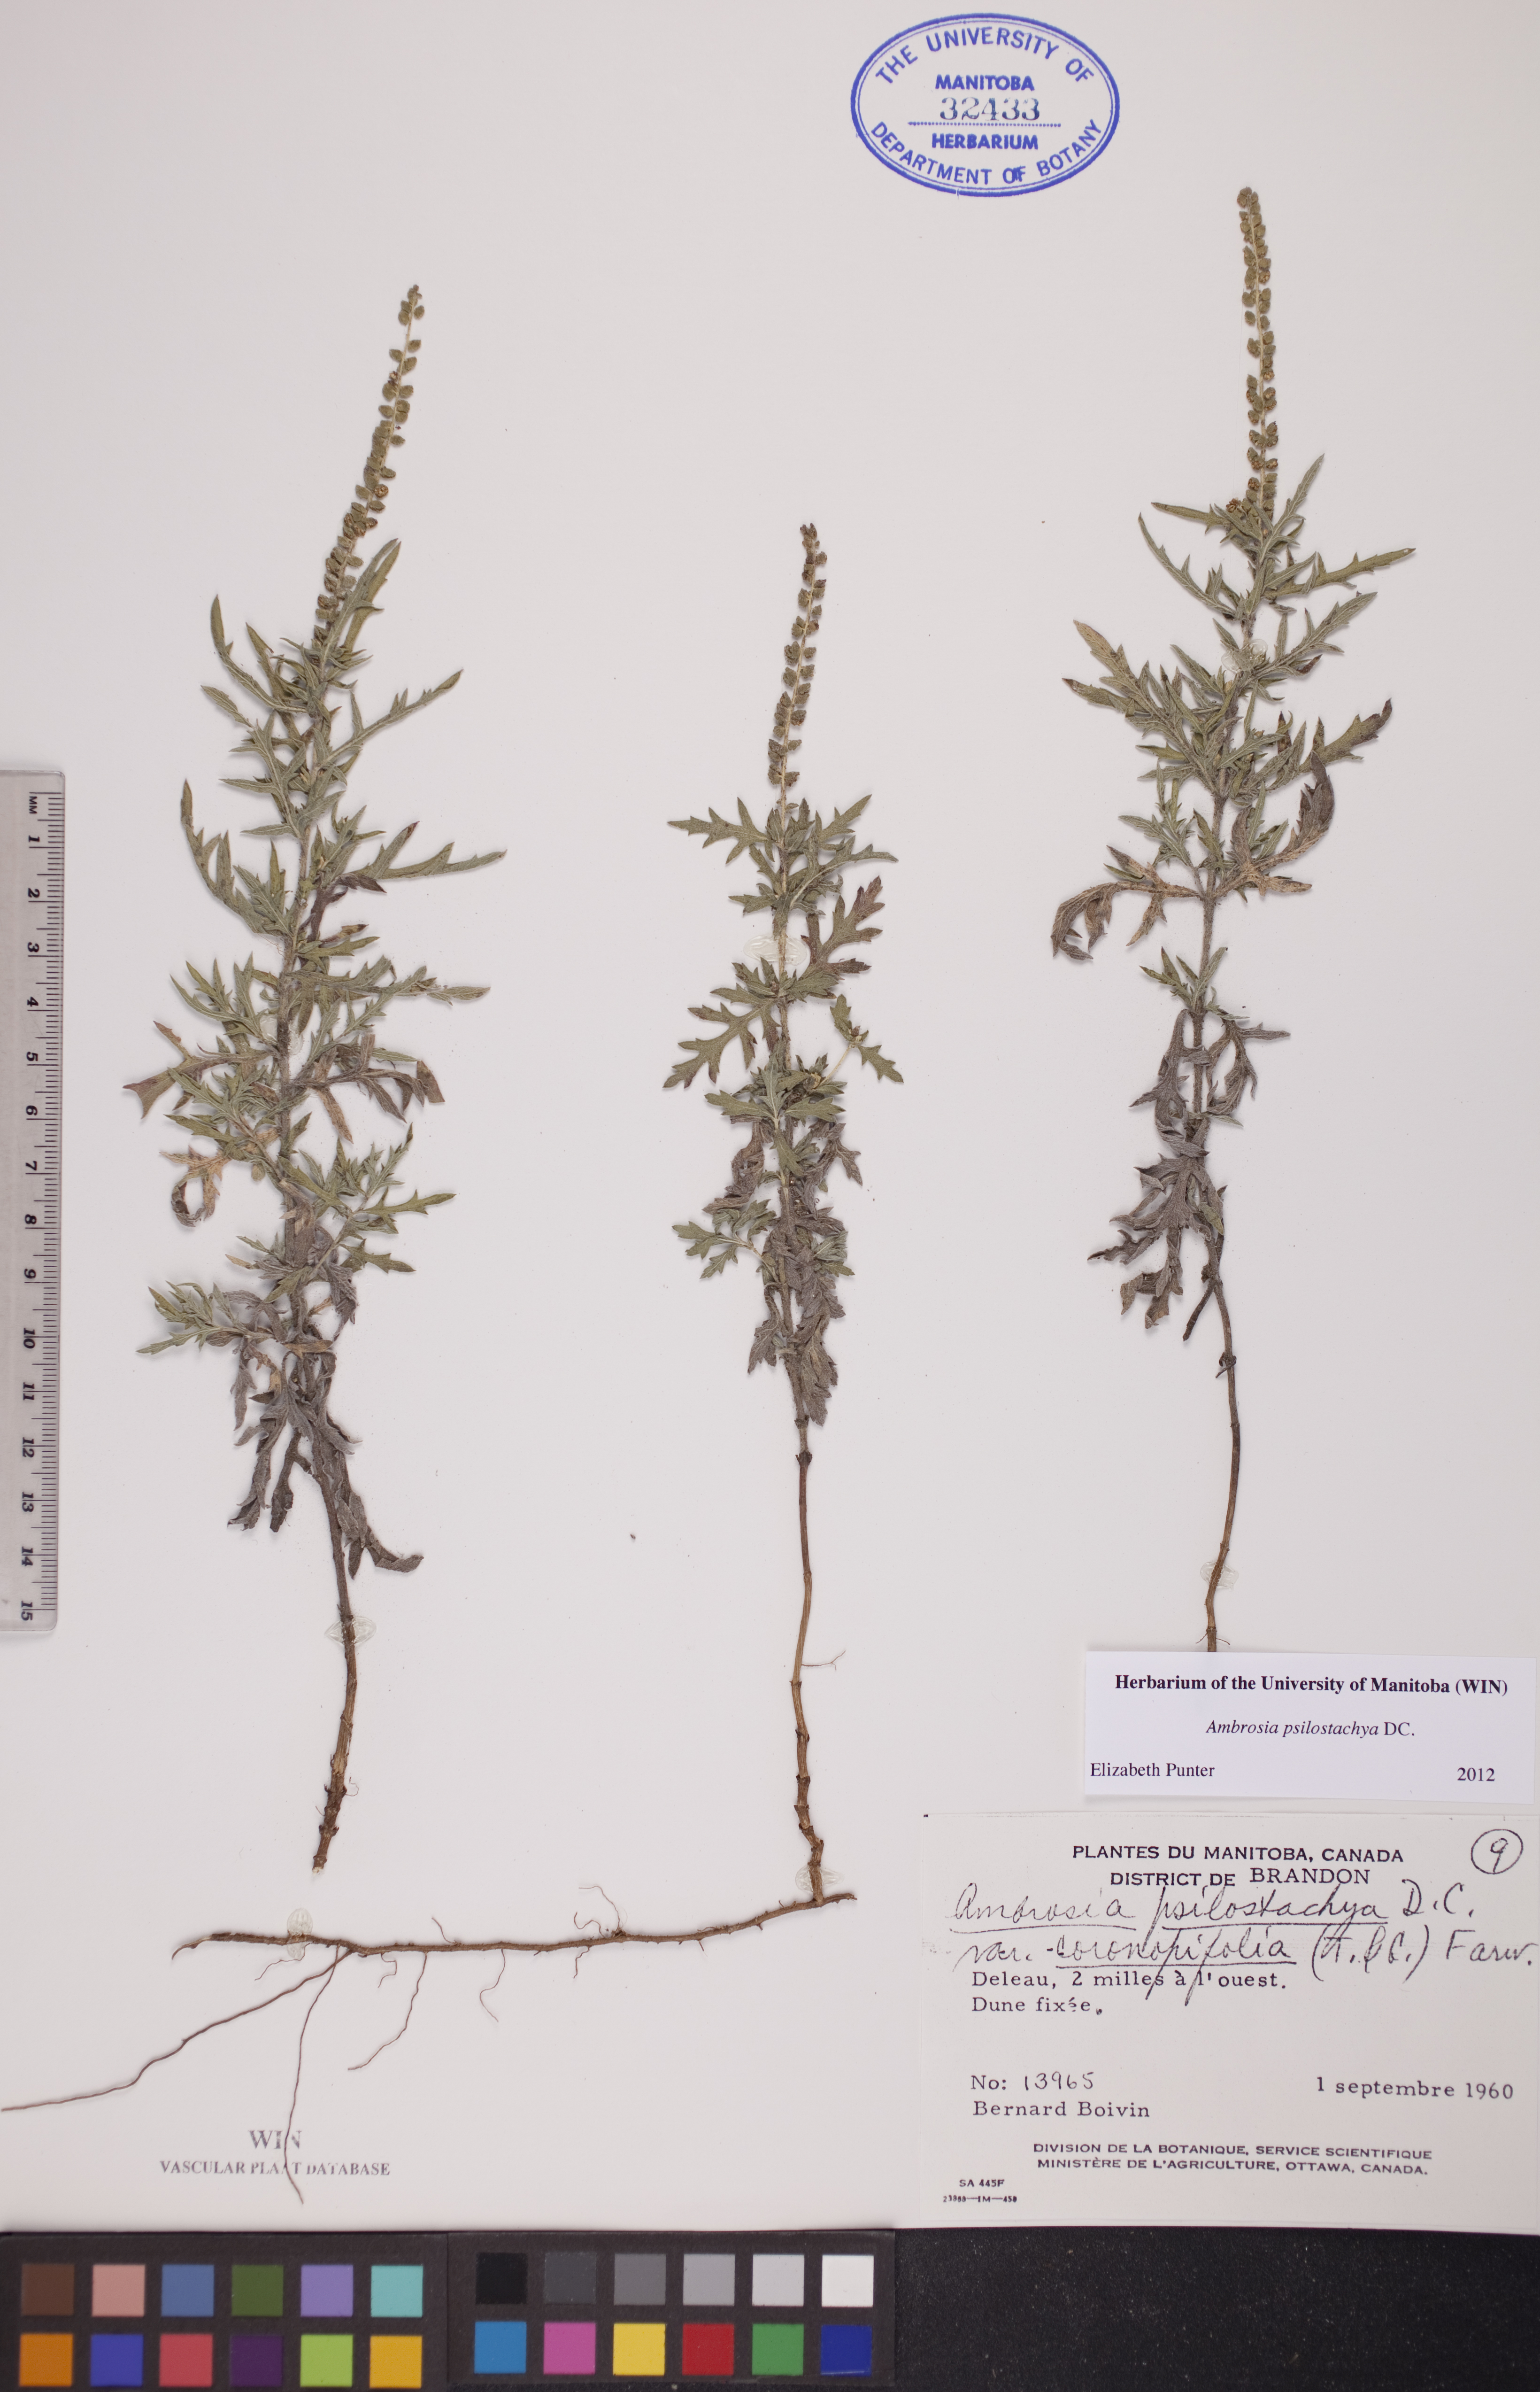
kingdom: Plantae
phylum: Tracheophyta
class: Magnoliopsida
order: Asterales
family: Asteraceae
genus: Ambrosia
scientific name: Ambrosia psilostachya
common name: Perennial ragweed
